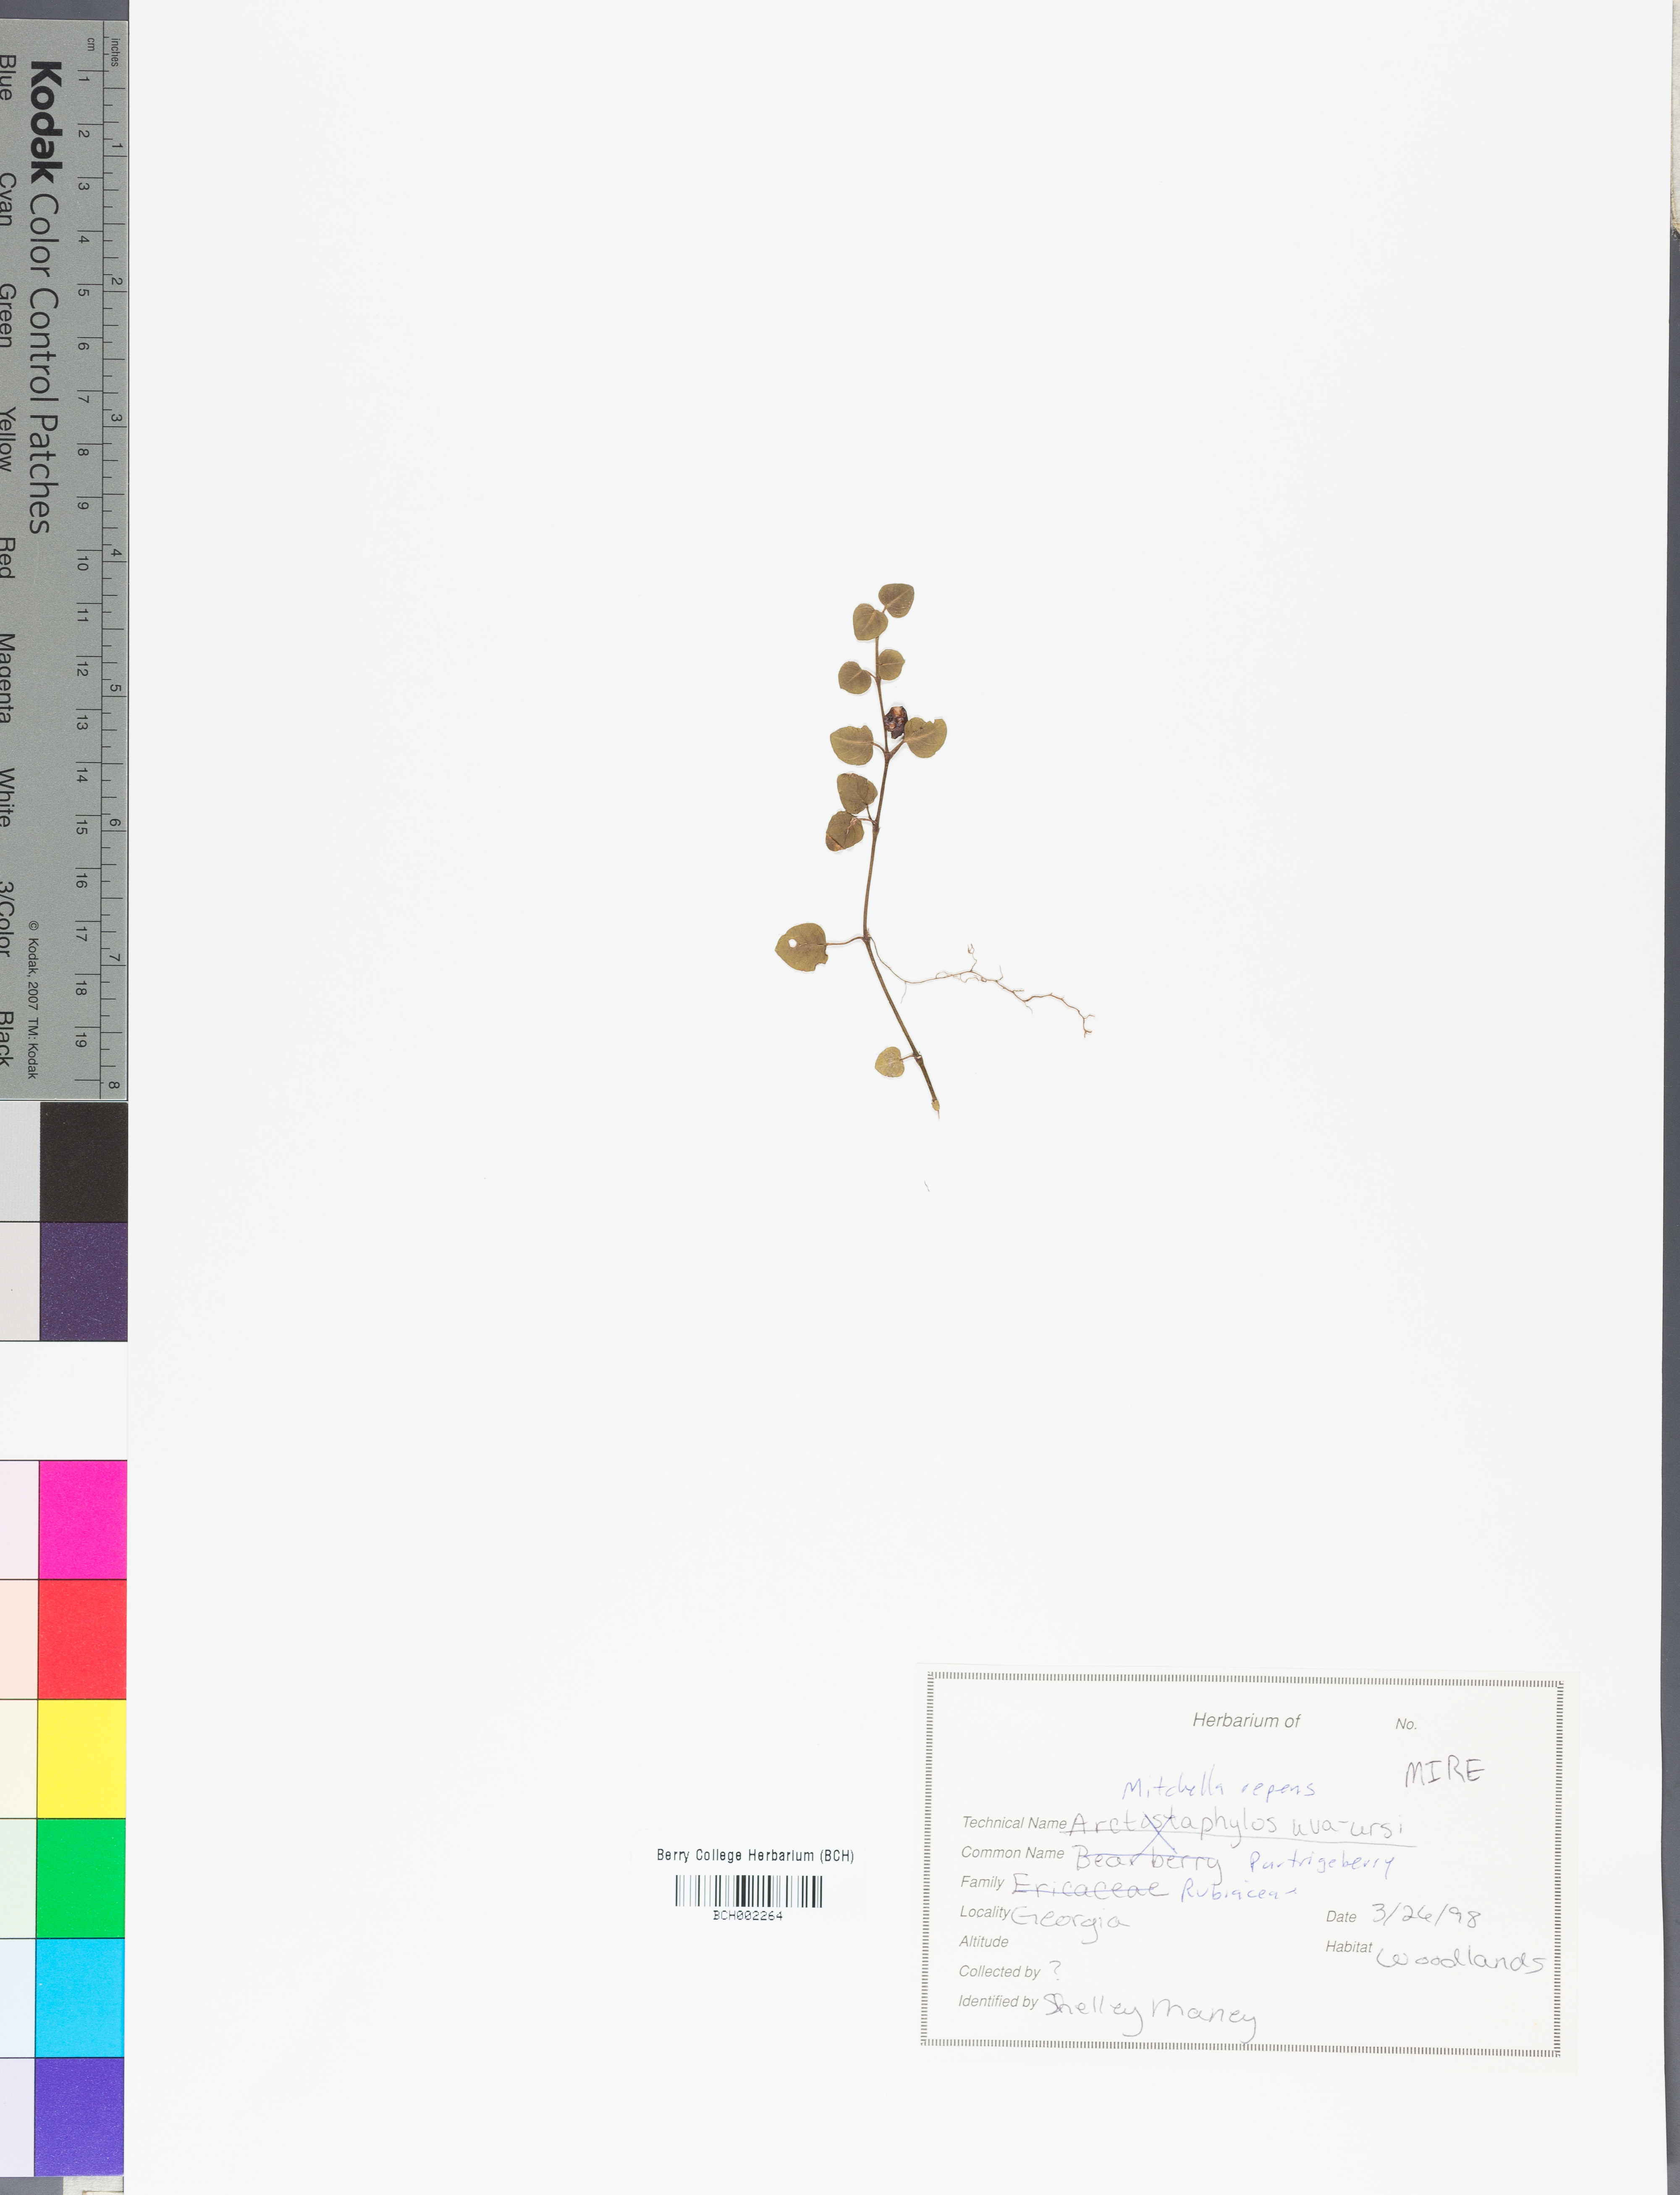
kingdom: Plantae
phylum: Tracheophyta
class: Magnoliopsida
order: Gentianales
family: Rubiaceae
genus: Mitchella
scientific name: Mitchella repens
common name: Partridge-berry
